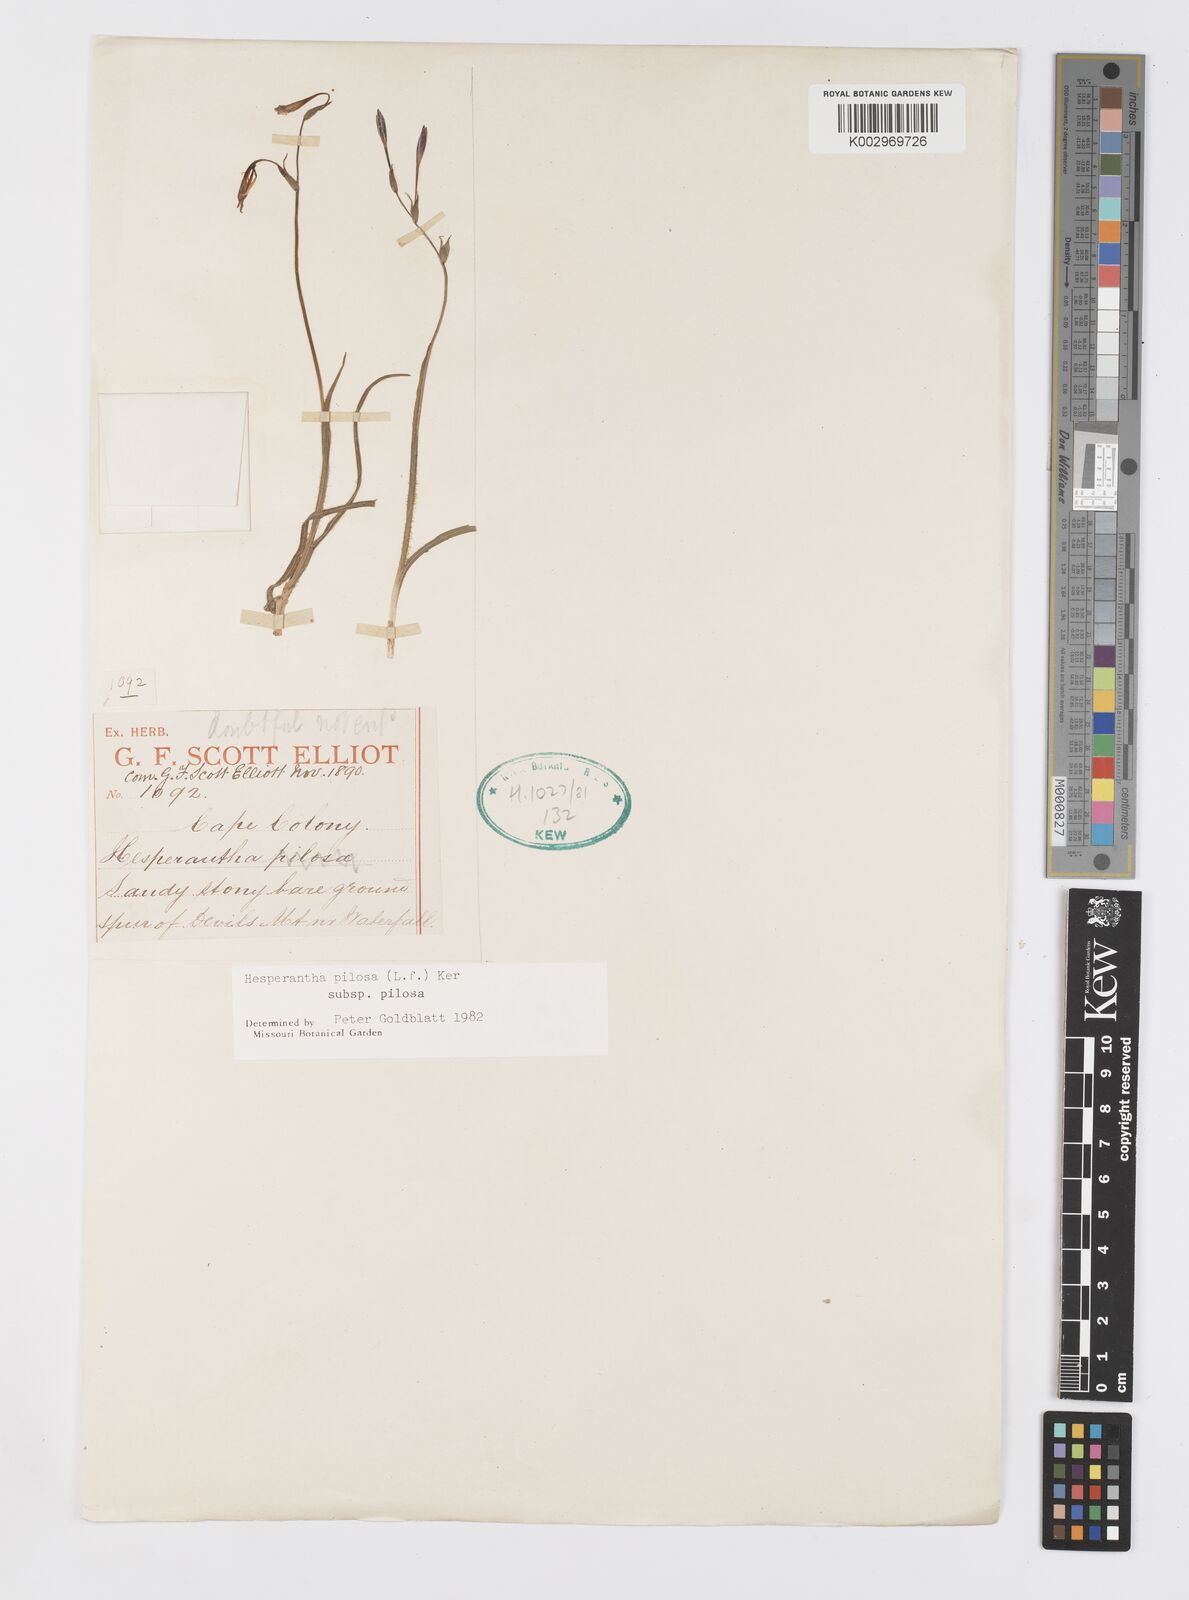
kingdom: Plantae
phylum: Tracheophyta
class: Liliopsida
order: Asparagales
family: Iridaceae
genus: Hesperantha
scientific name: Hesperantha pilosa
